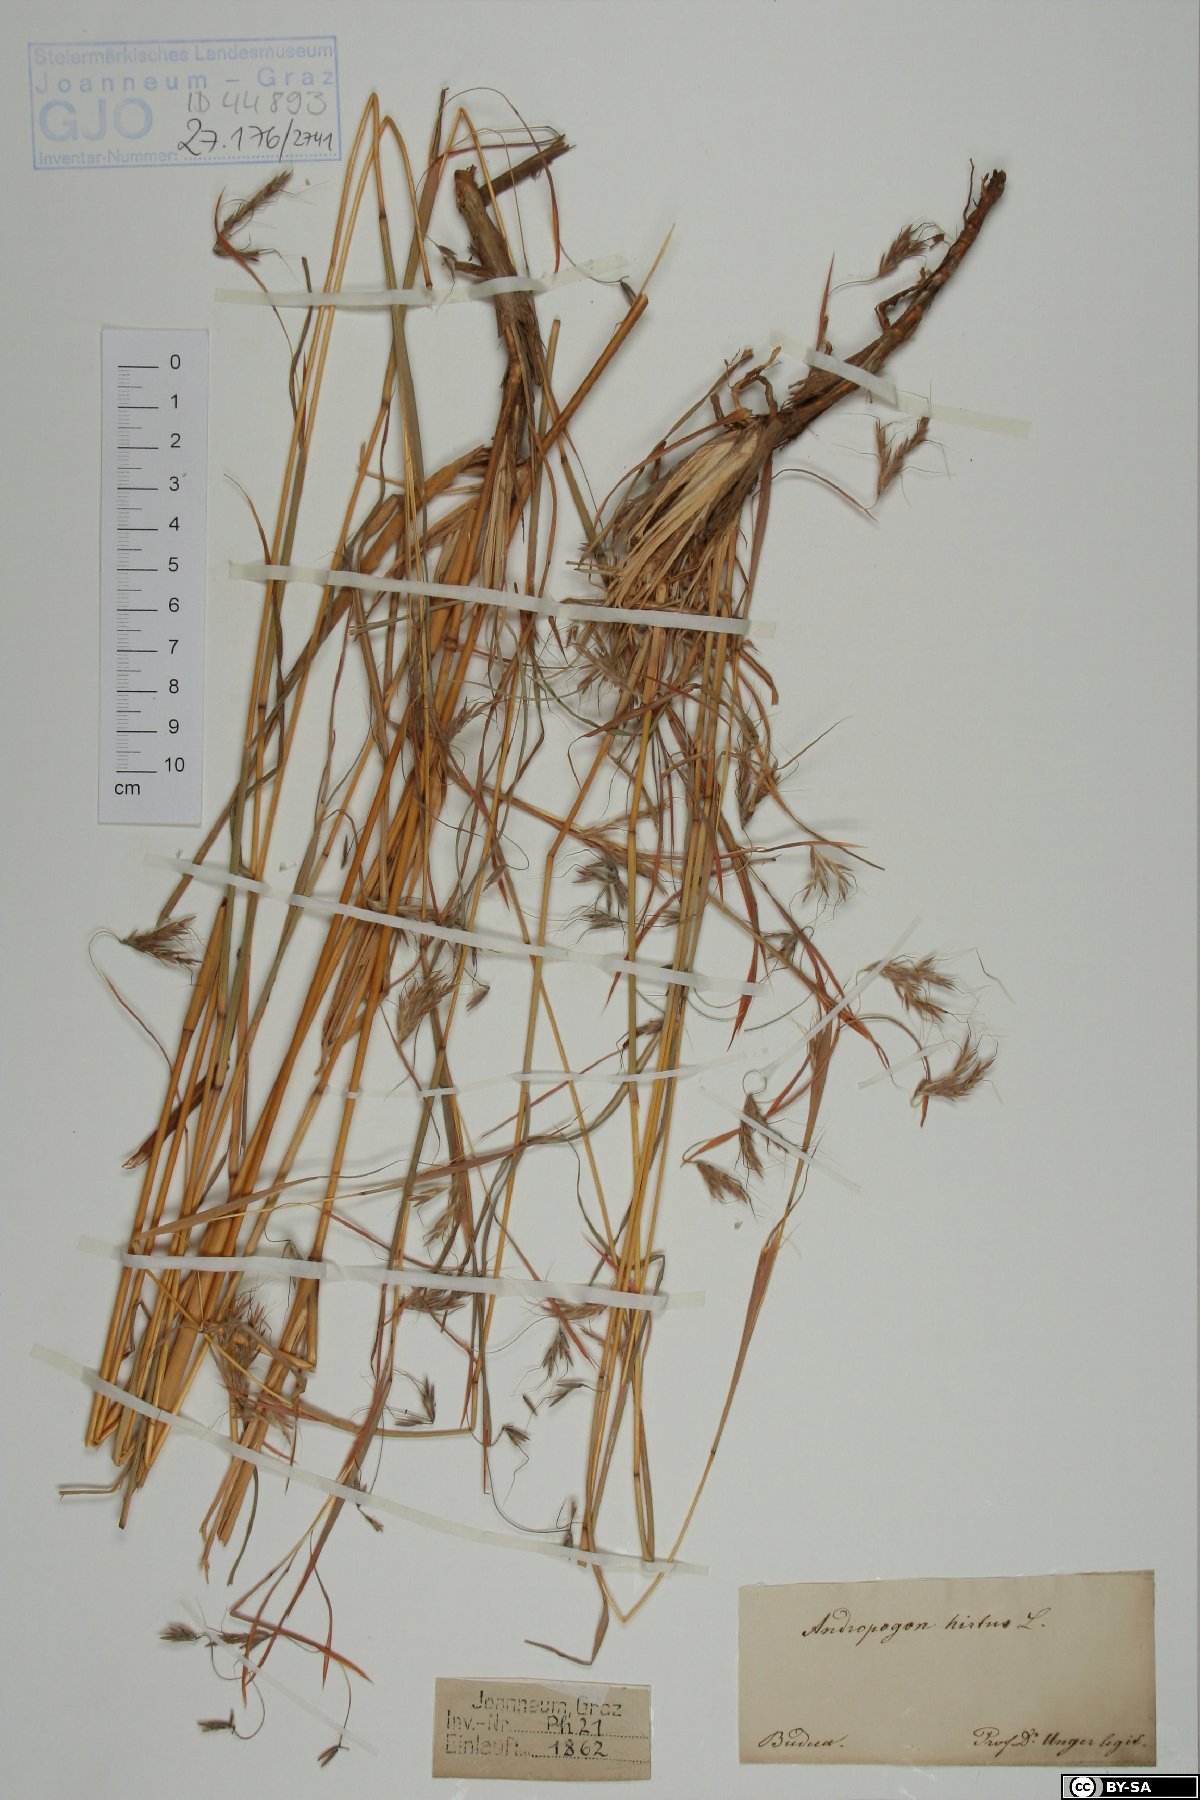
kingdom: Plantae
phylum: Tracheophyta
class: Liliopsida
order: Poales
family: Poaceae
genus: Hyparrhenia
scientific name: Hyparrhenia hirta
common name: Thatching grass
